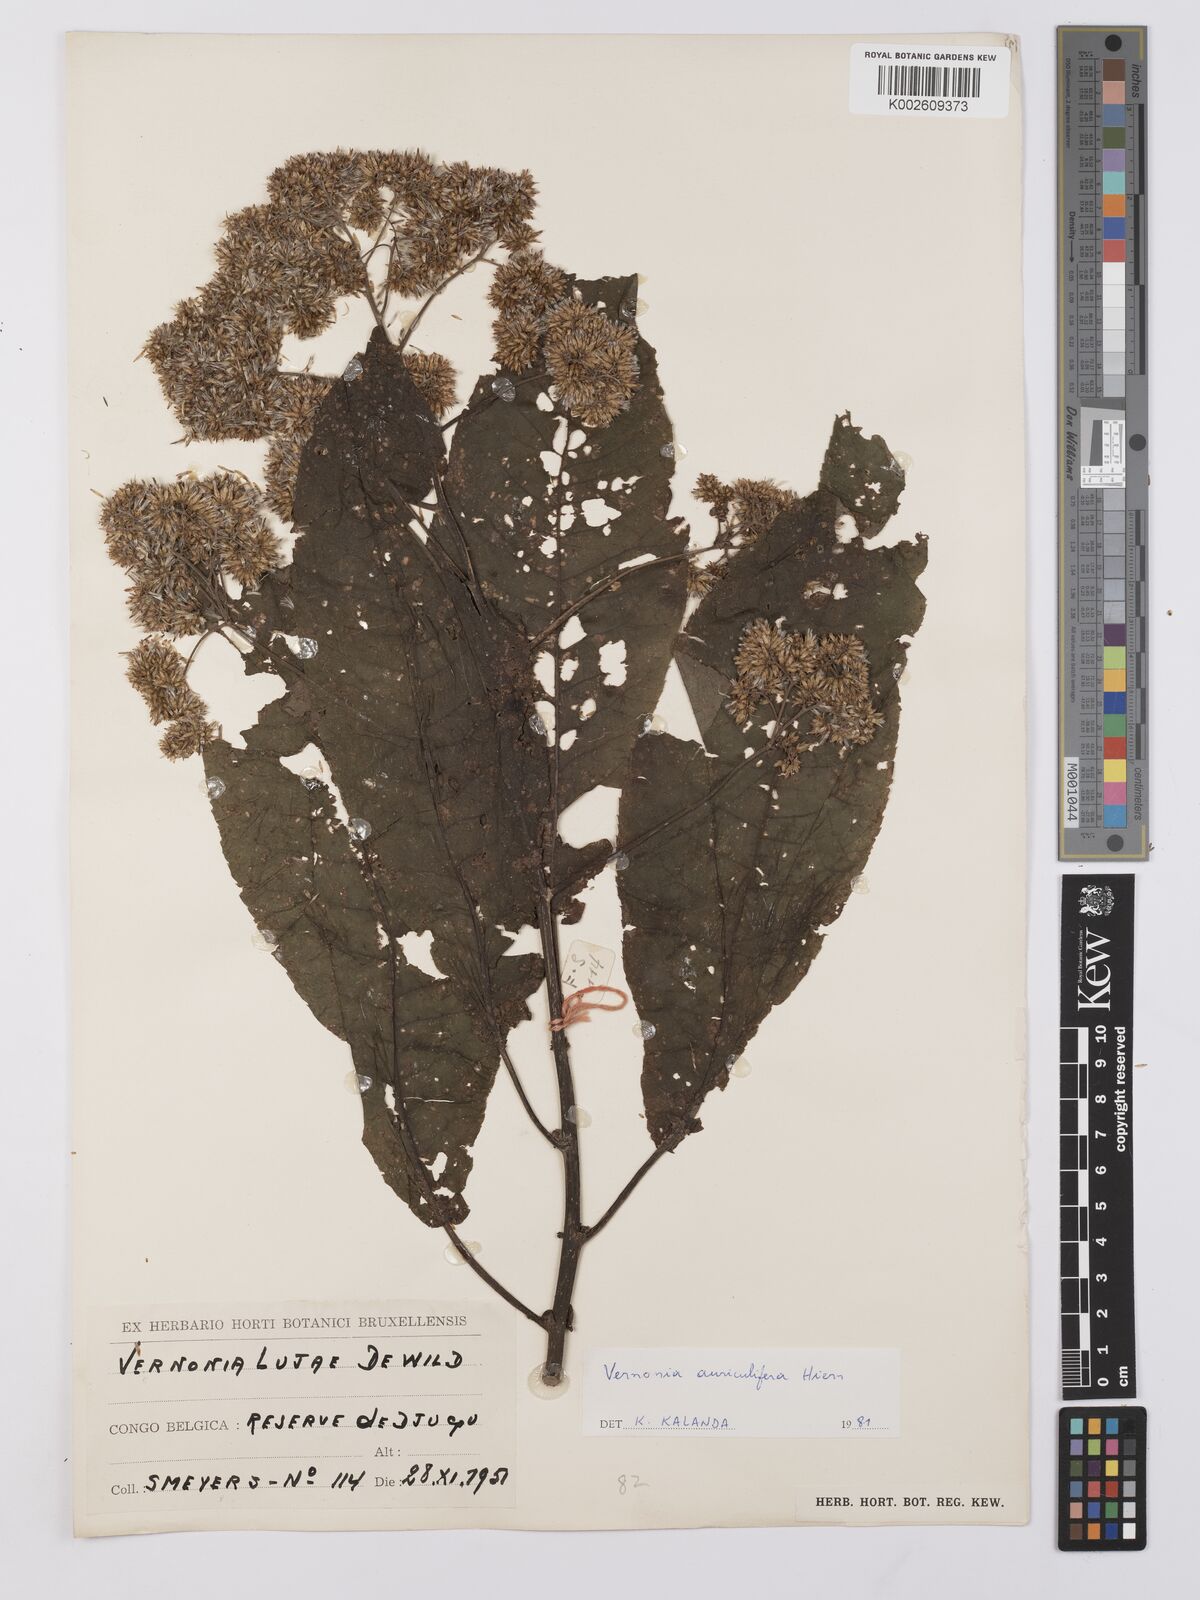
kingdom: Plantae
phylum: Tracheophyta
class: Magnoliopsida
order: Asterales
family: Asteraceae
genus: Gymnanthemum
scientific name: Gymnanthemum myrianthum
